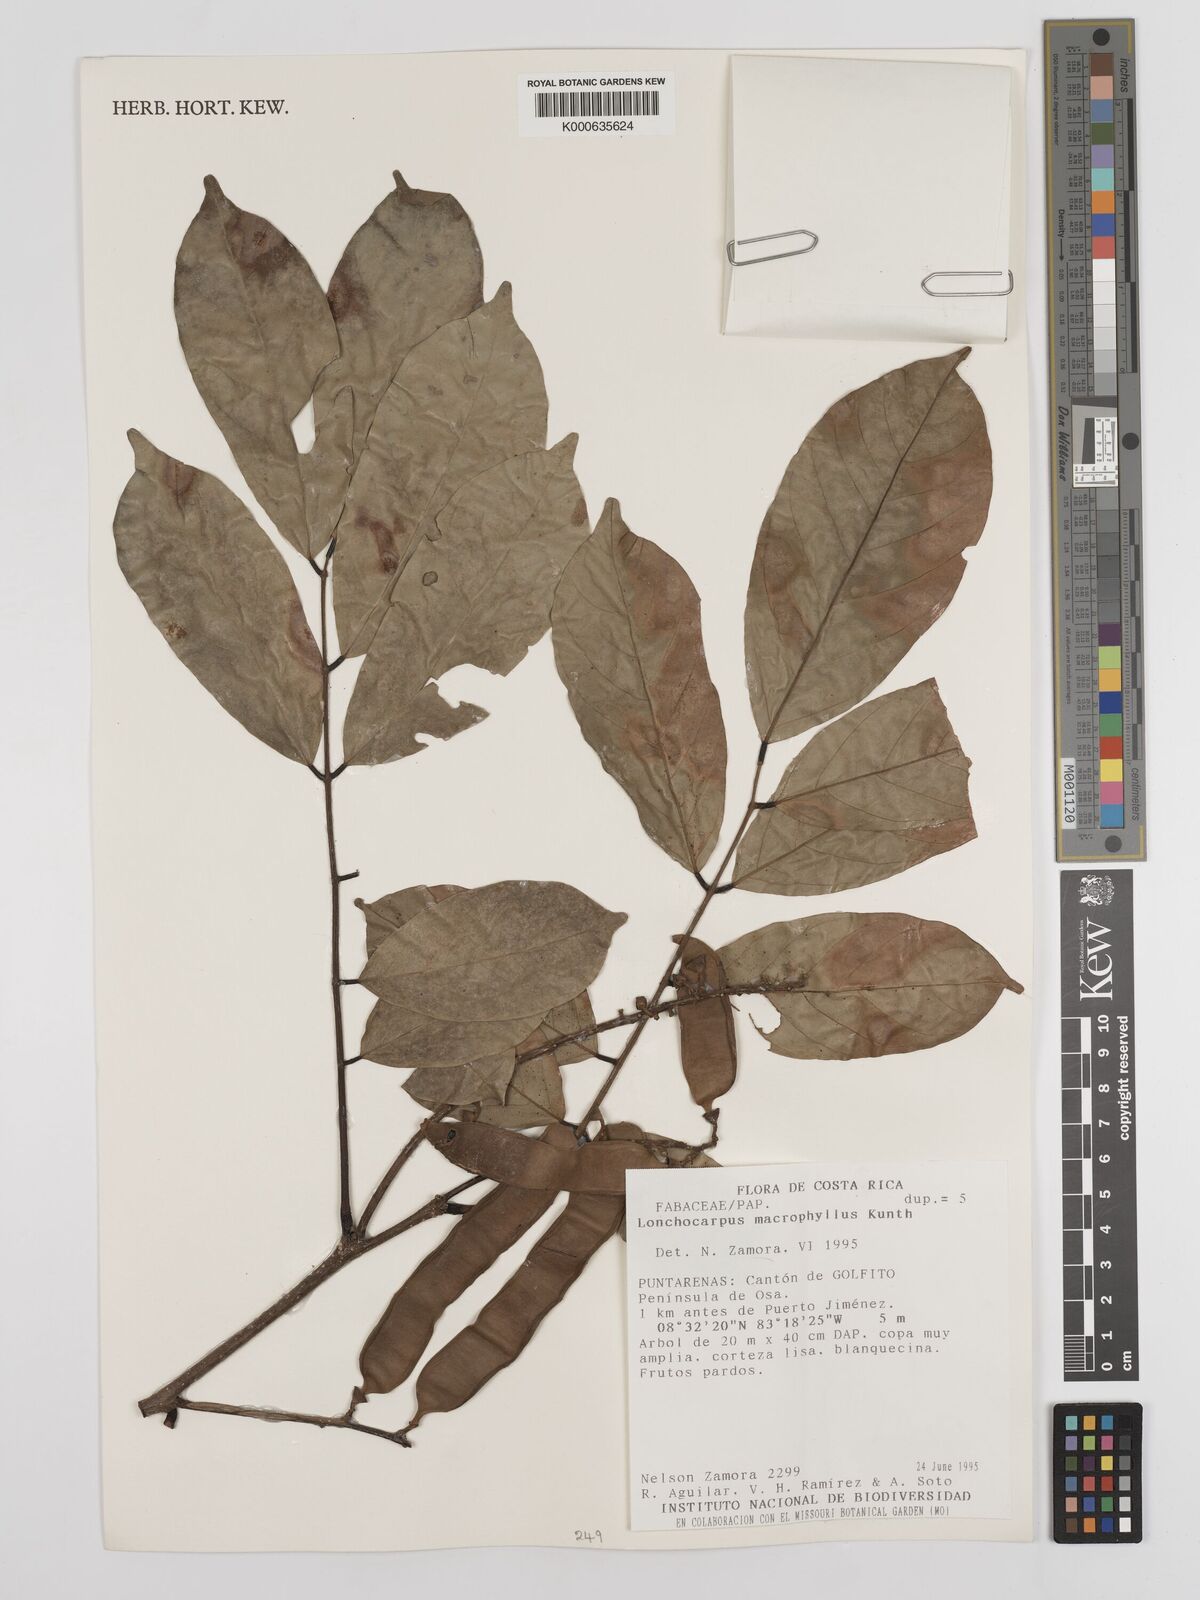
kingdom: Plantae
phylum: Tracheophyta
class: Magnoliopsida
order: Fabales
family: Fabaceae
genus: Lonchocarpus
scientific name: Lonchocarpus macrophyllus
